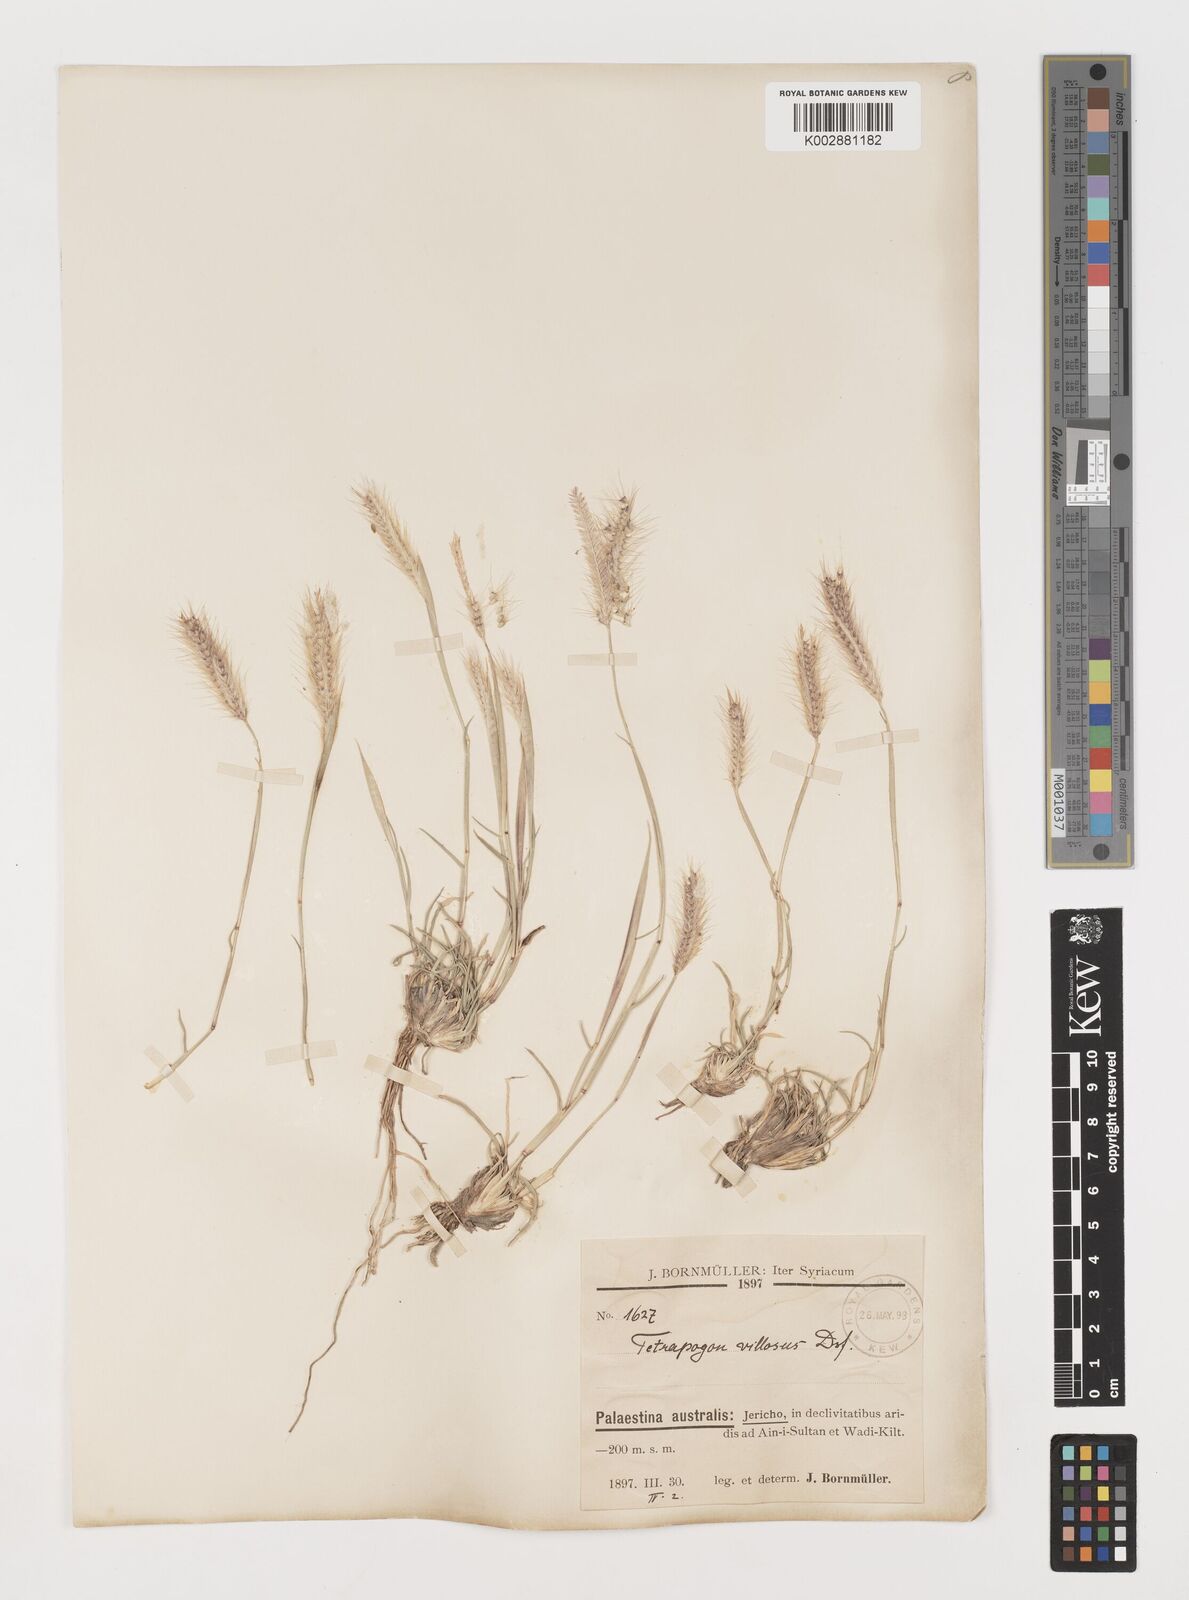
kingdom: Plantae
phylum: Tracheophyta
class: Liliopsida
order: Poales
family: Poaceae
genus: Tetrapogon
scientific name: Tetrapogon villosus
